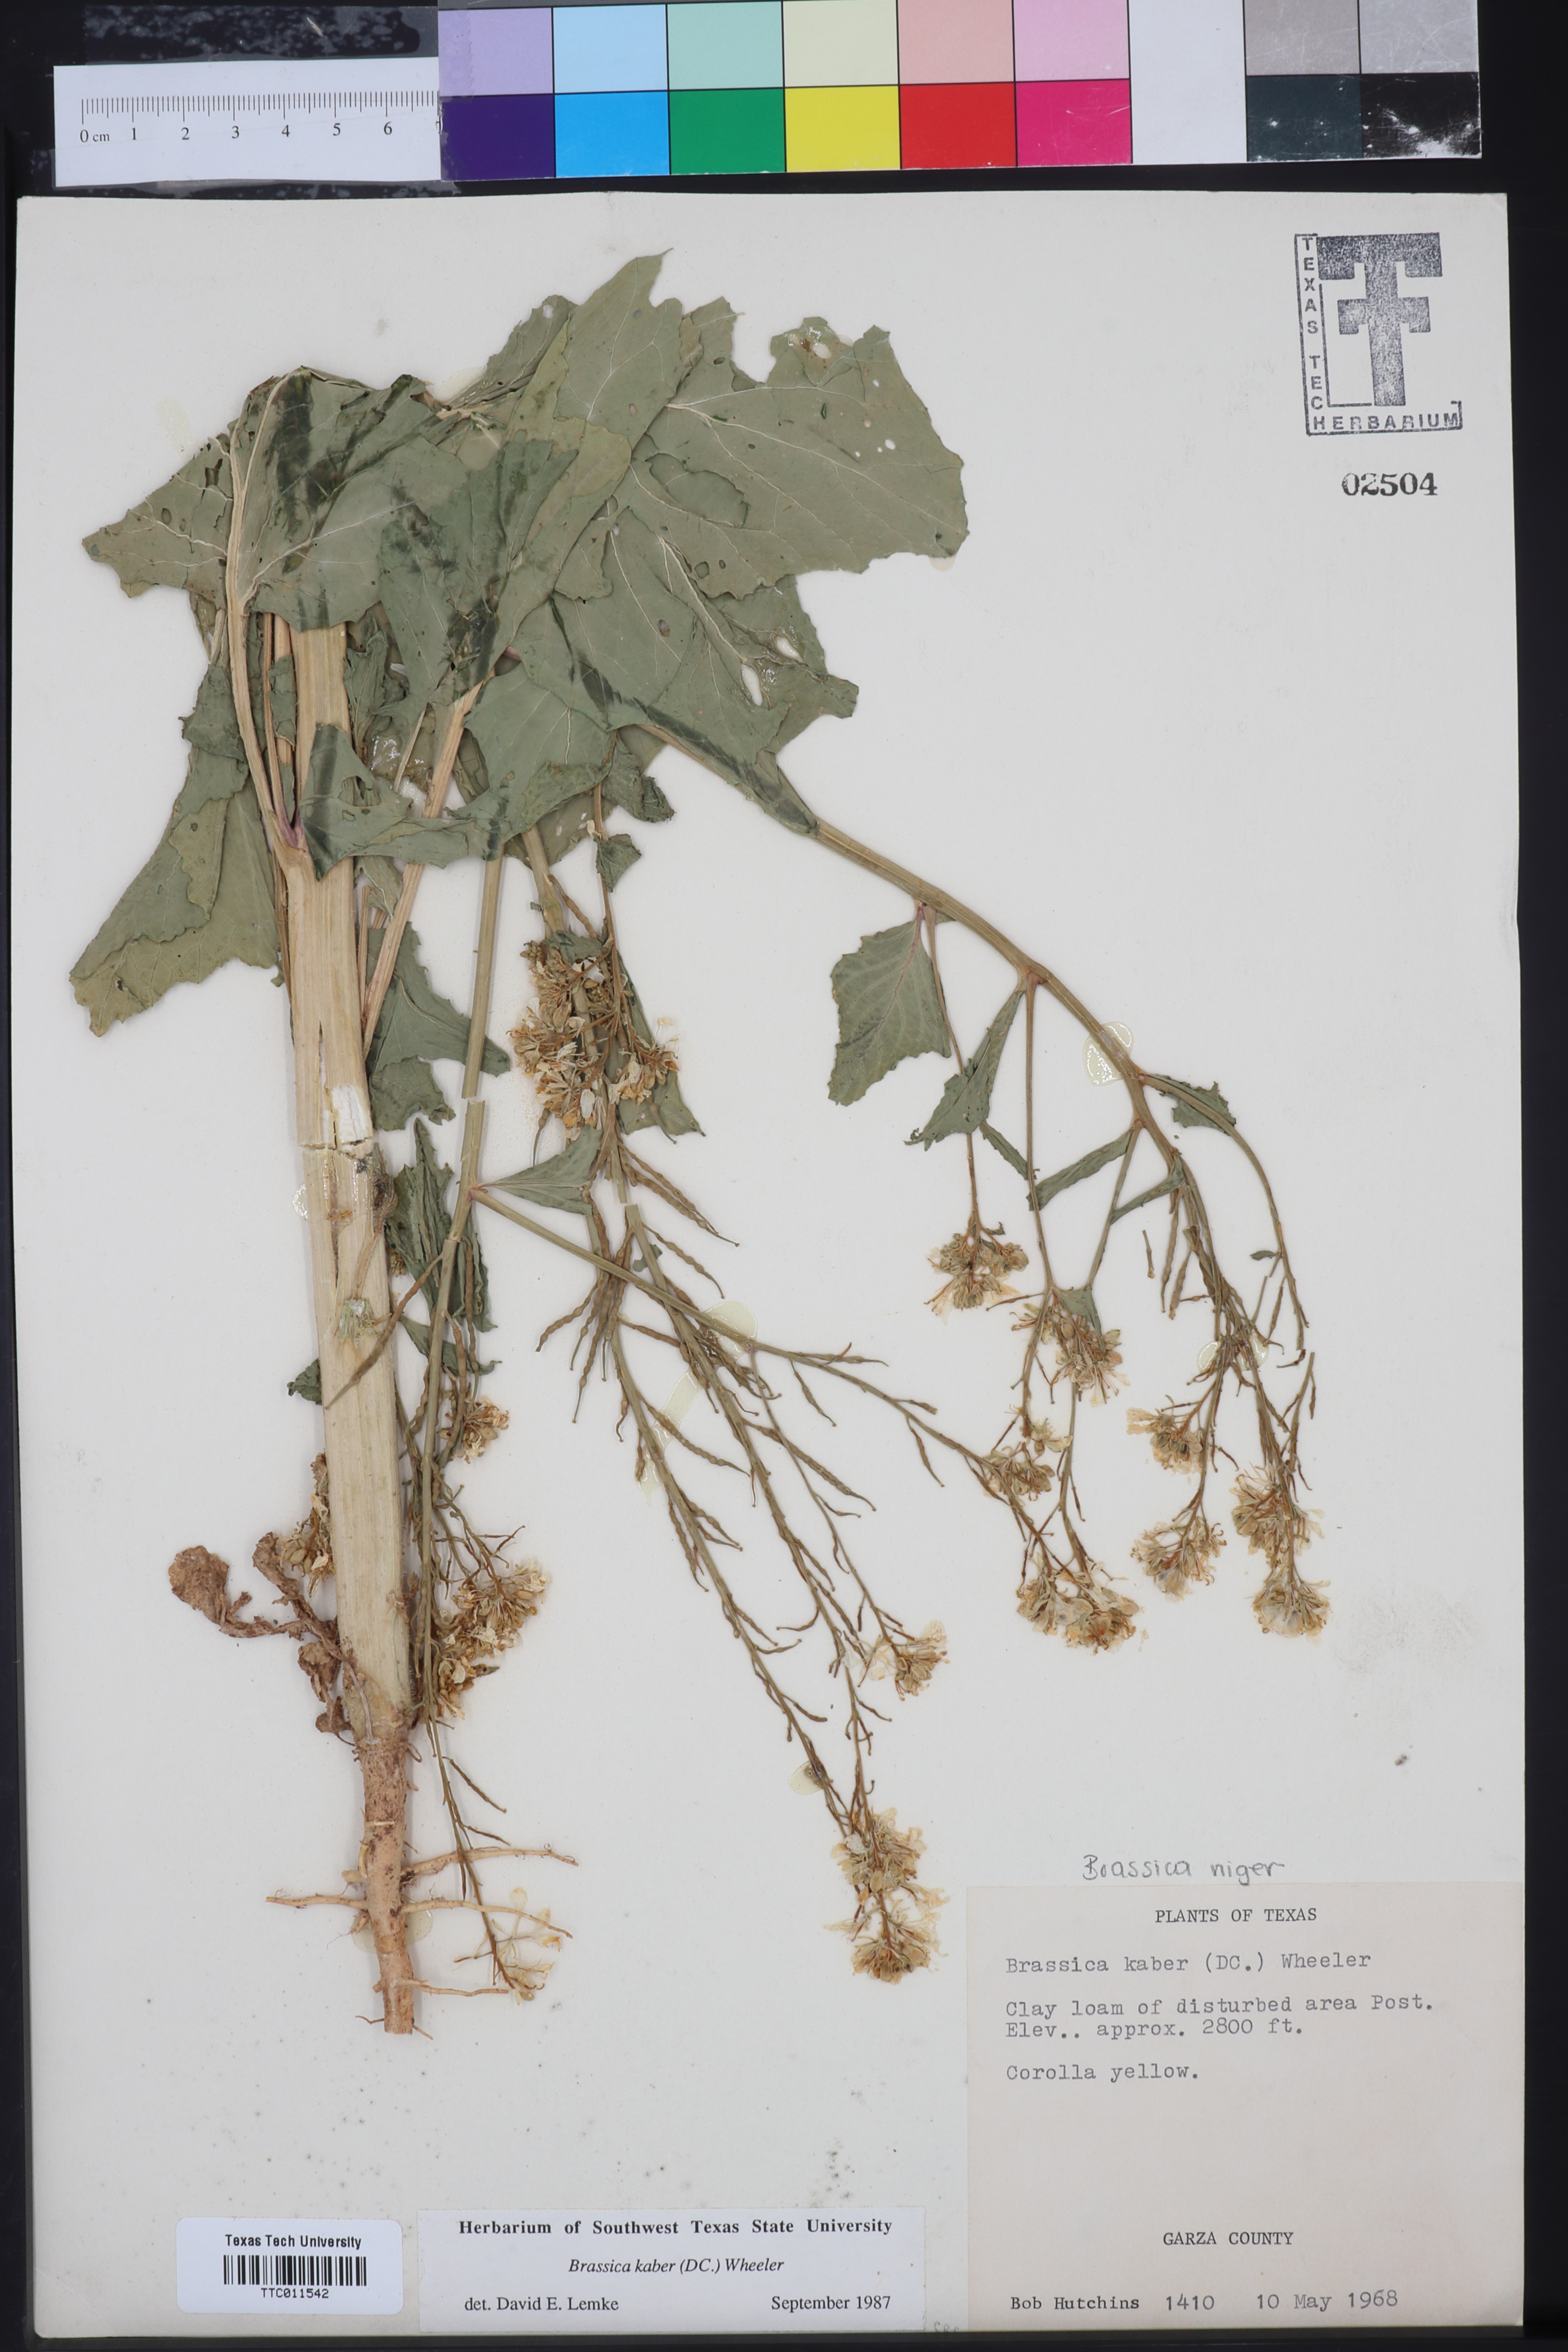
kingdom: Plantae
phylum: Tracheophyta
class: Magnoliopsida
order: Brassicales
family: Brassicaceae
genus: Sinapis
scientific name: Sinapis arvensis
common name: Charlock
